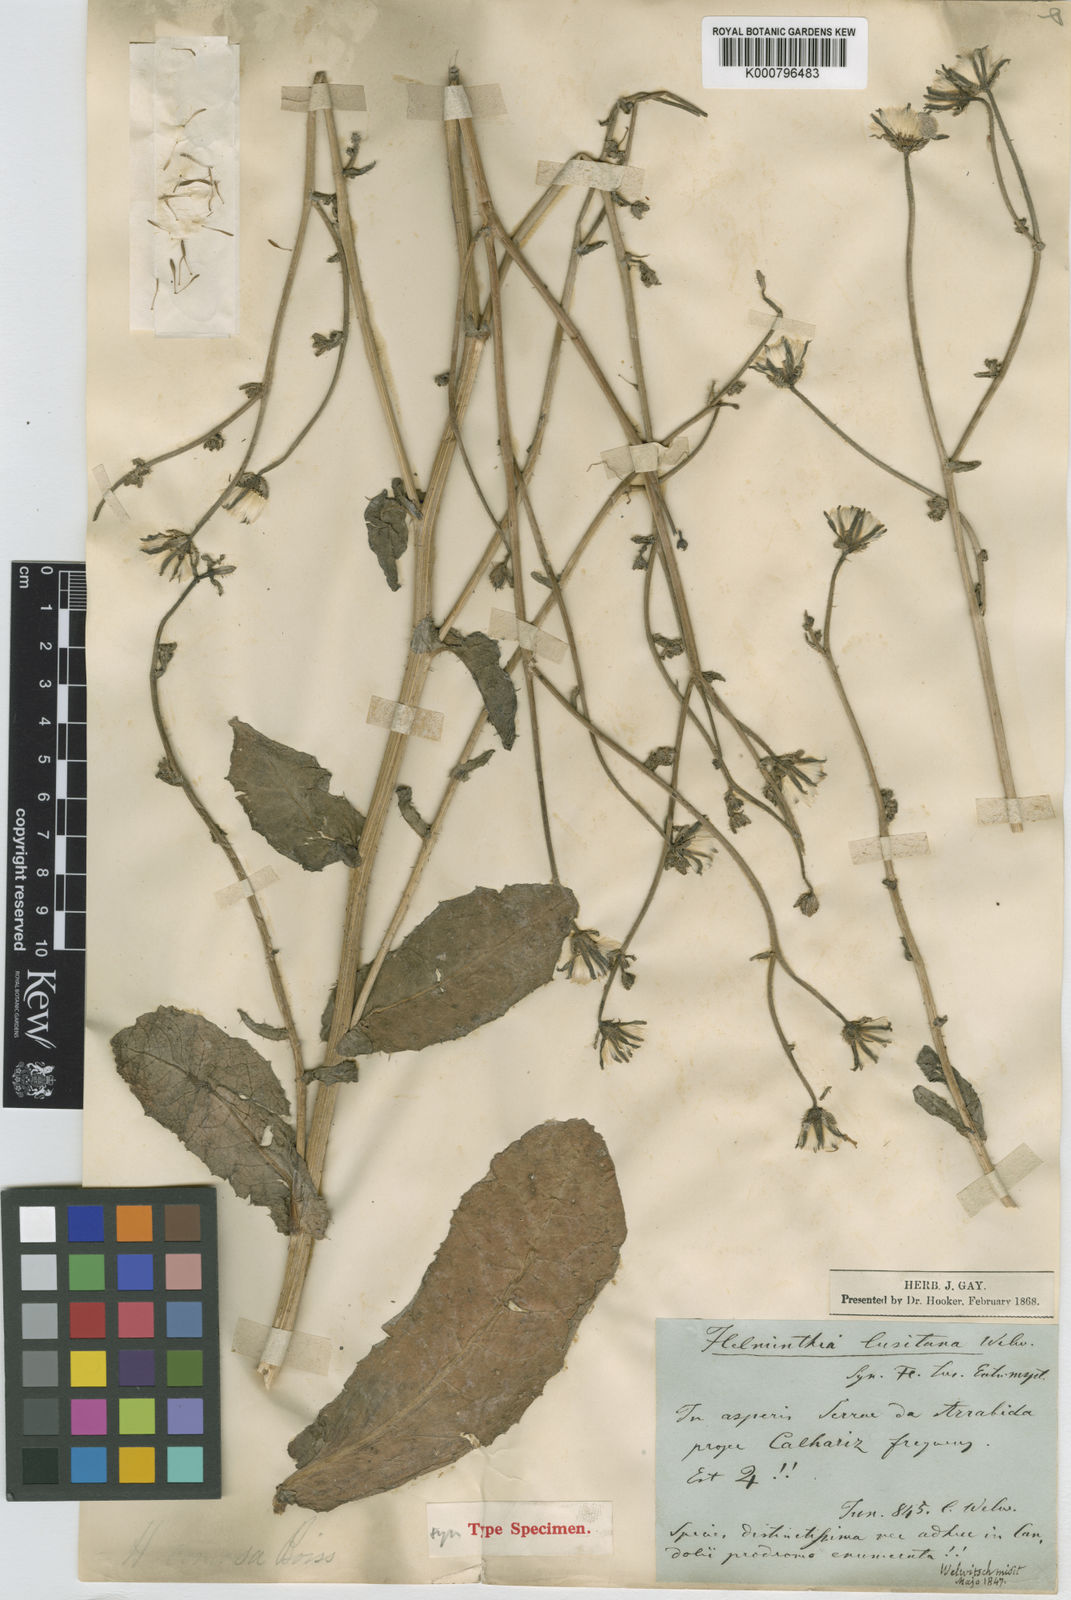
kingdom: Plantae
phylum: Tracheophyta
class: Magnoliopsida
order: Asterales
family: Asteraceae
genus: Helminthotheca
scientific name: Helminthotheca spinosa
